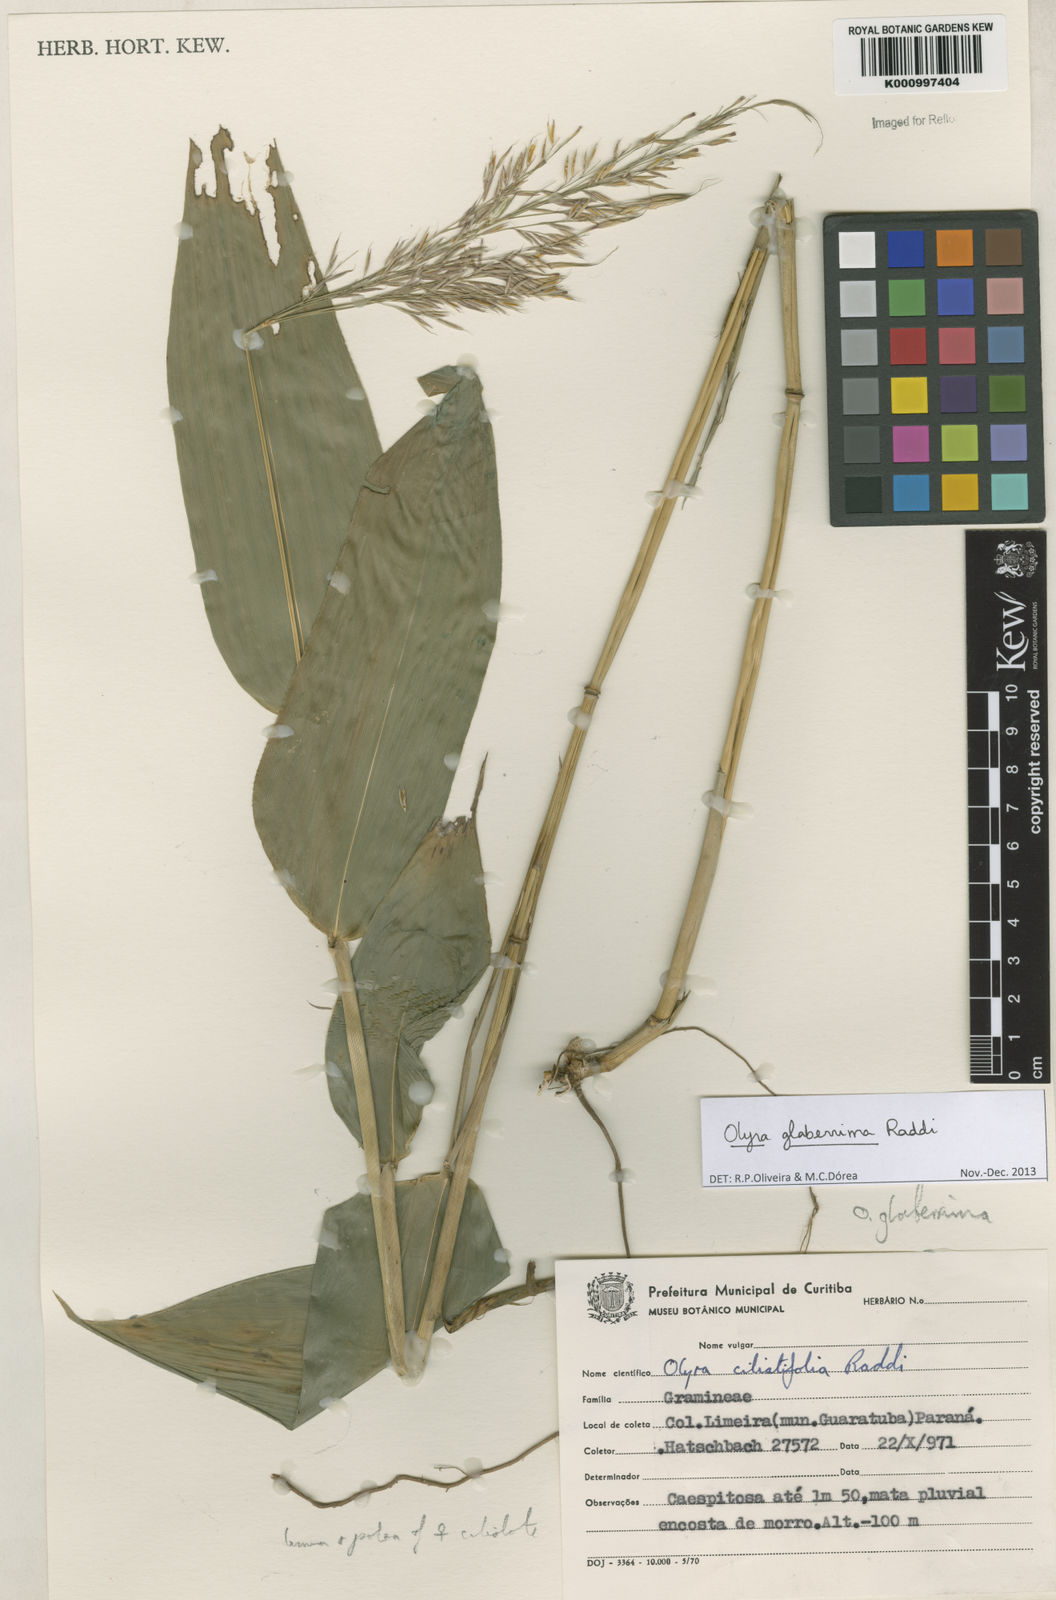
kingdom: Plantae
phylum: Tracheophyta
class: Liliopsida
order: Poales
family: Poaceae
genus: Olyra
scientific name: Olyra glaberrima
